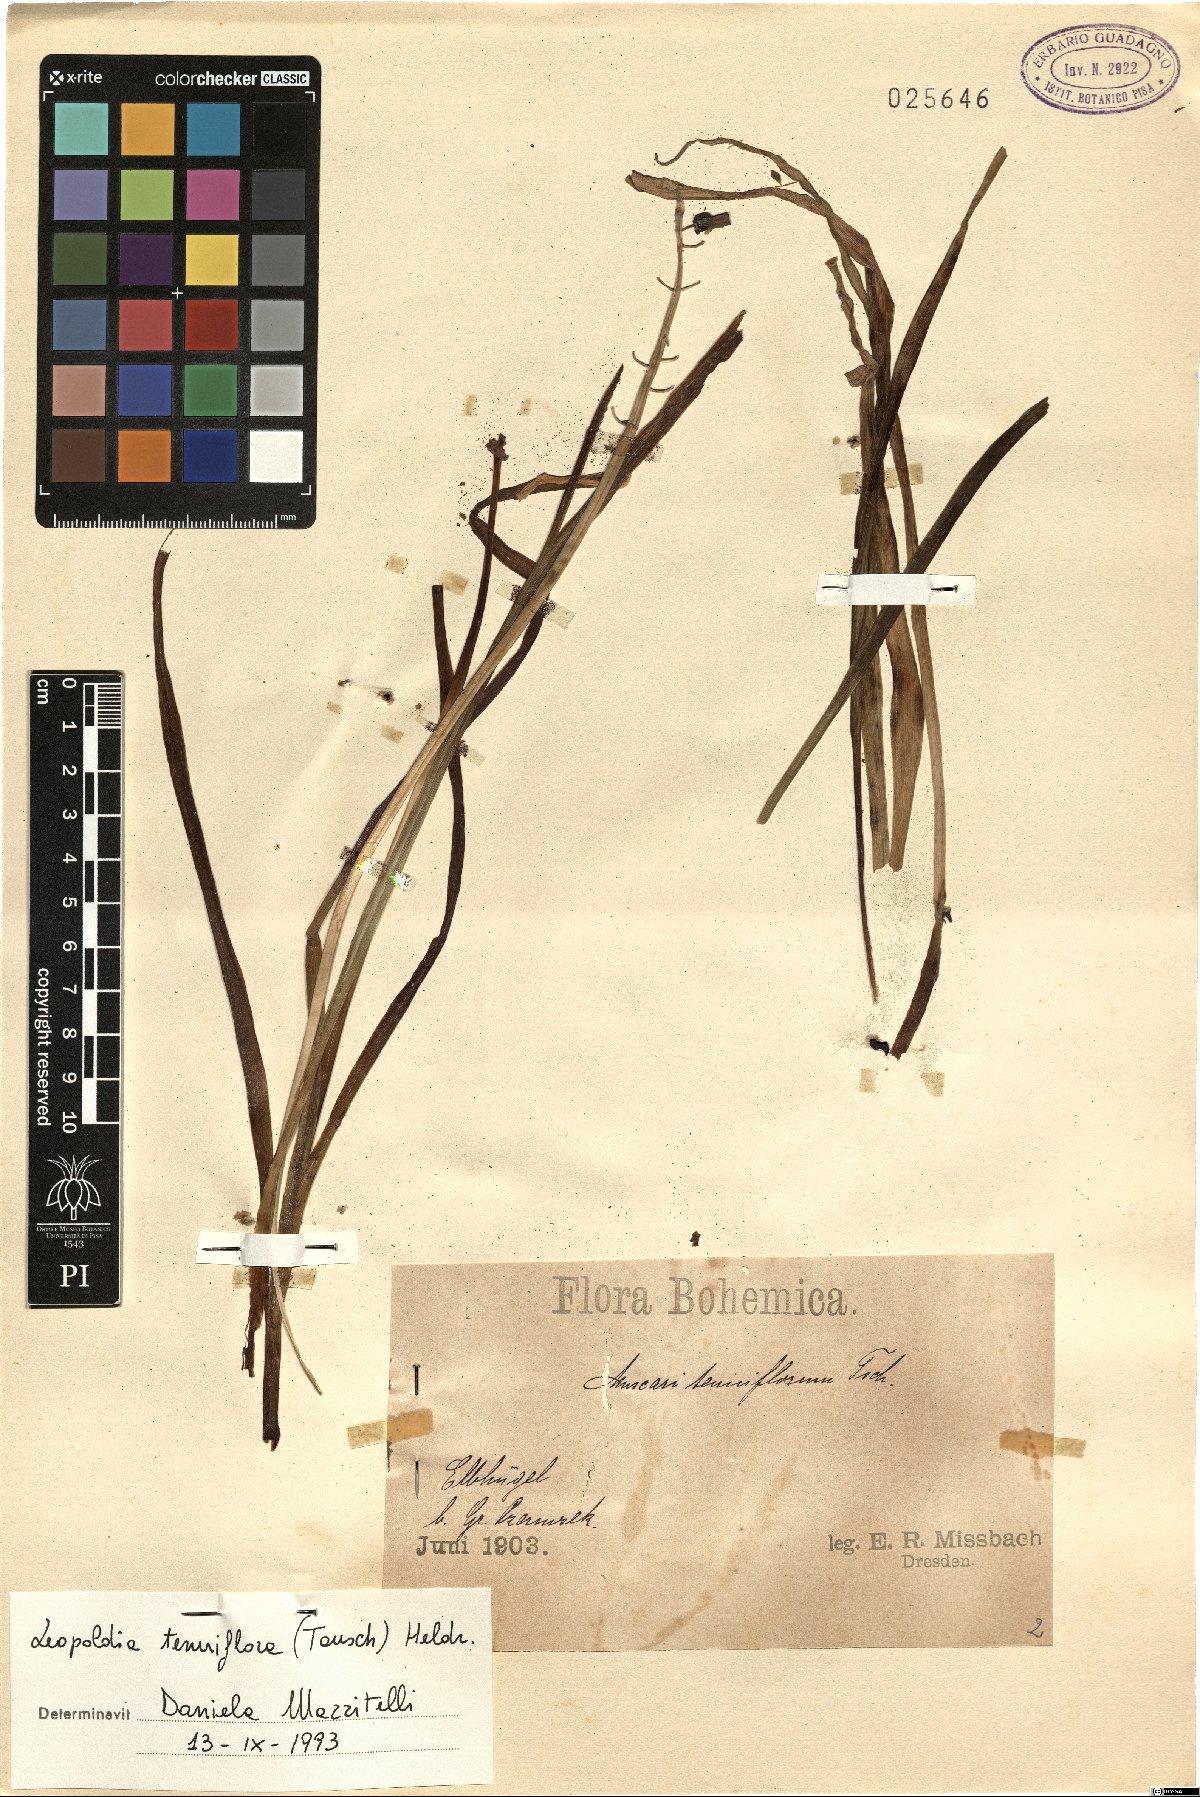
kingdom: Plantae
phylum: Tracheophyta
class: Liliopsida
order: Asparagales
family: Asparagaceae
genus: Muscari
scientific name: Muscari tenuiflorum
